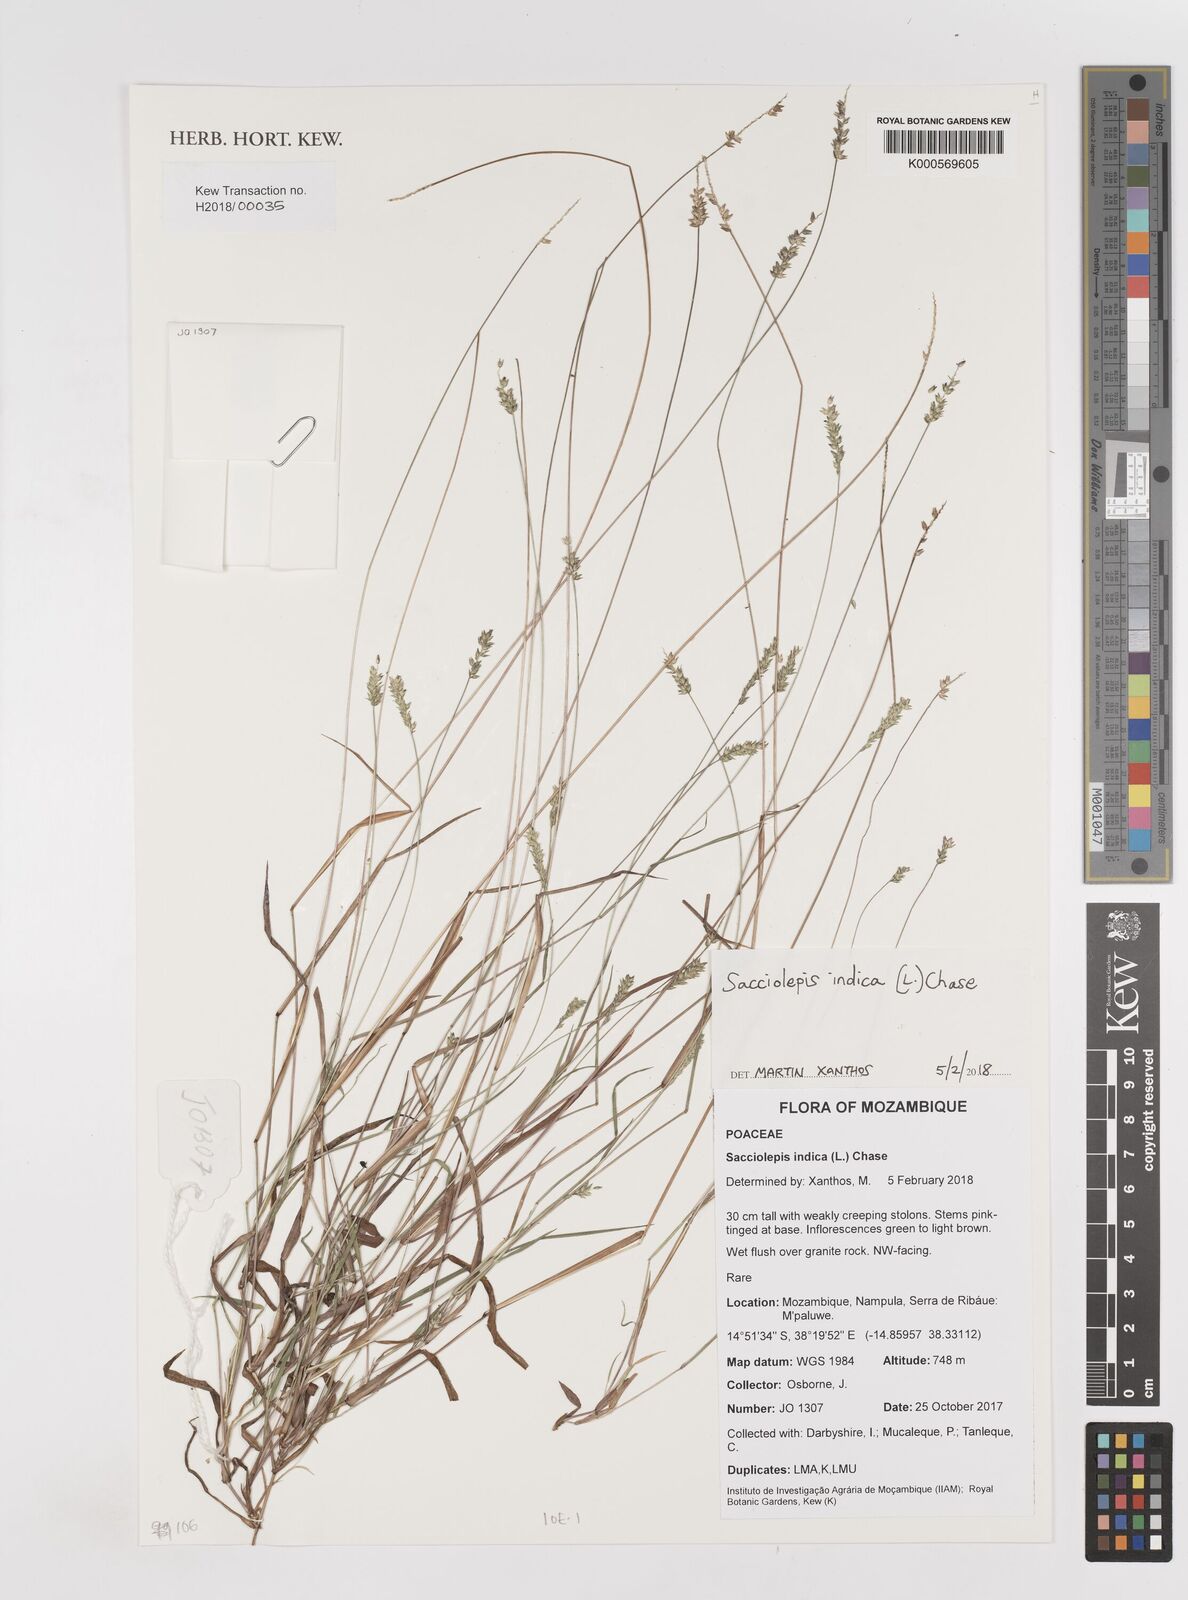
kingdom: Plantae
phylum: Tracheophyta
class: Liliopsida
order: Poales
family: Poaceae
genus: Sacciolepis
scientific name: Sacciolepis indica
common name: Glenwoodgrass
